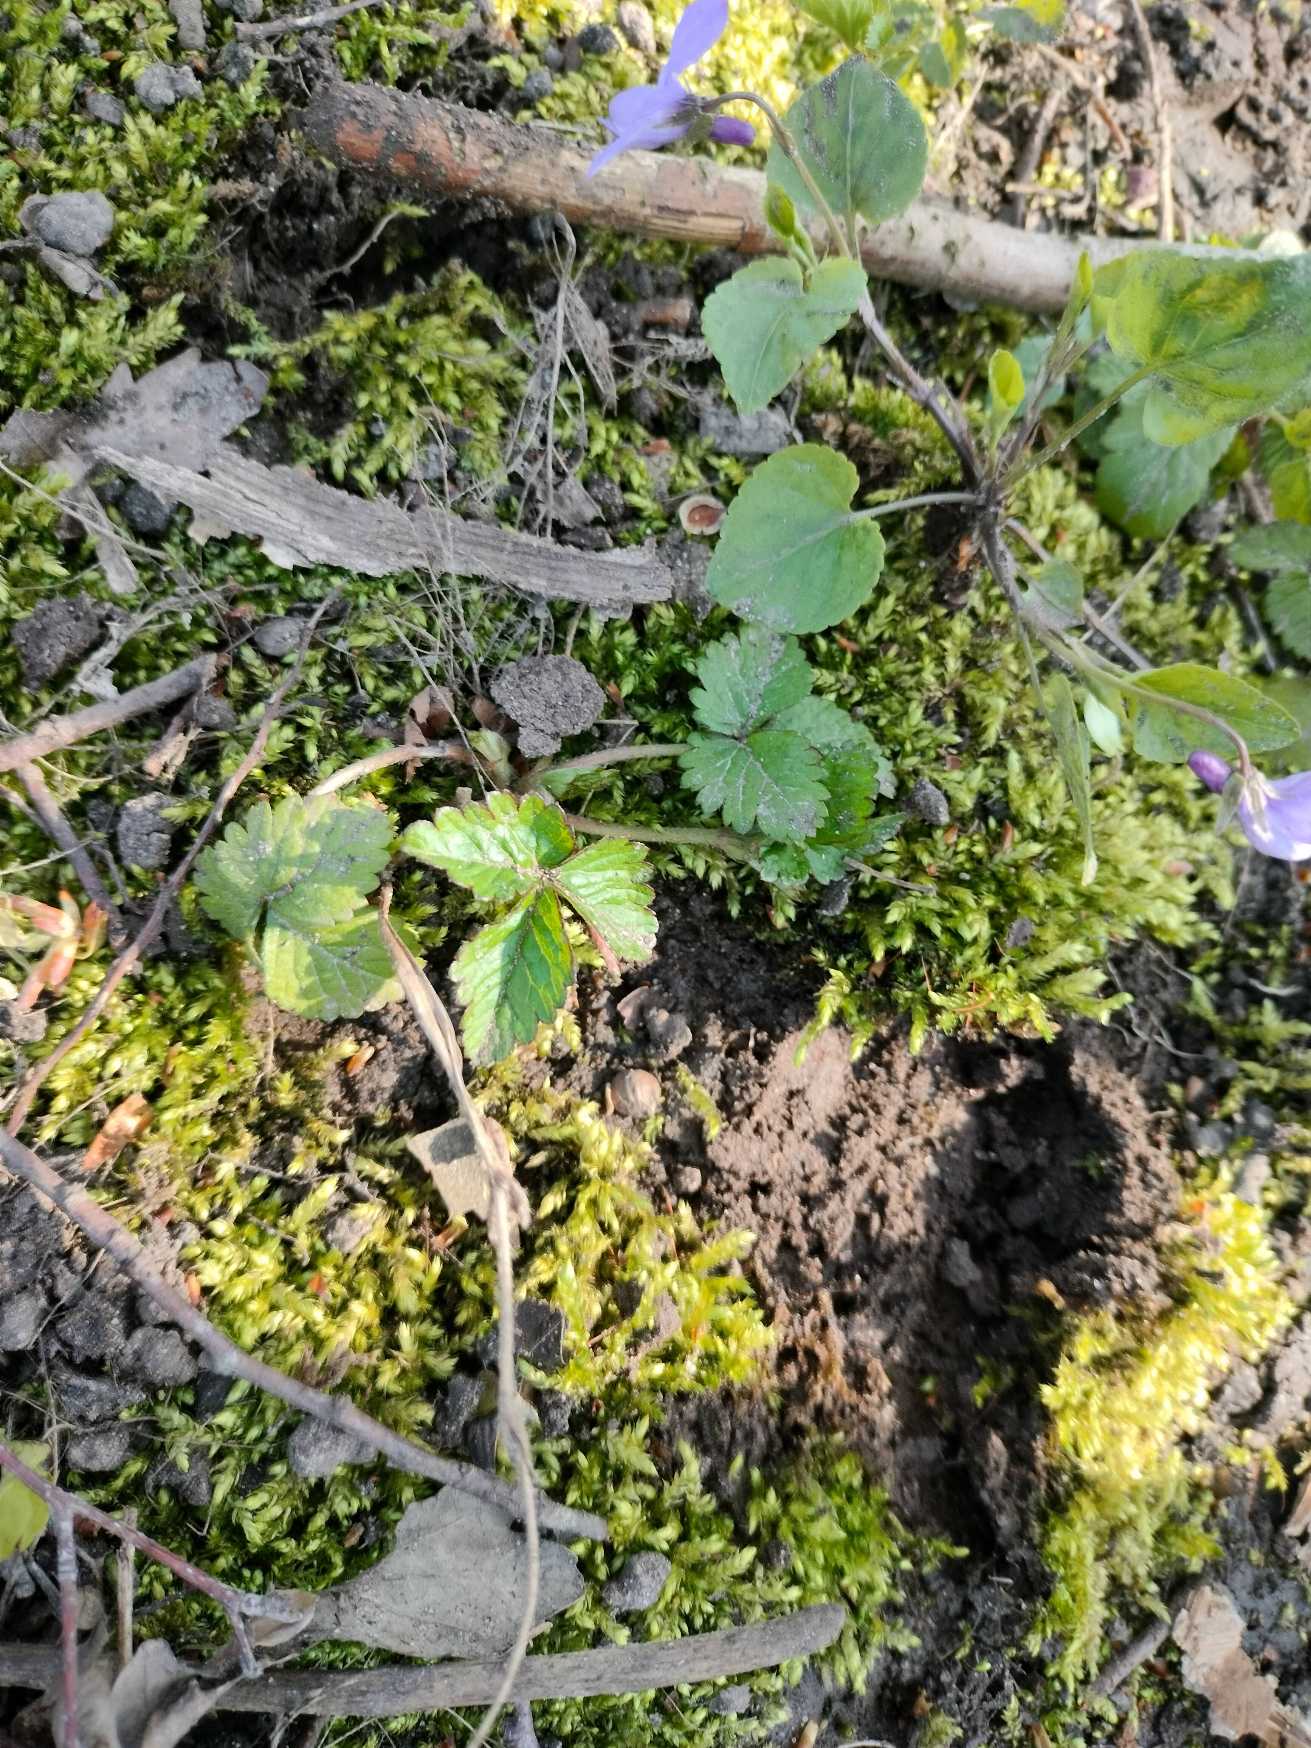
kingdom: Plantae
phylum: Bryophyta
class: Bryopsida
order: Hypnales
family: Brachytheciaceae
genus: Brachythecium
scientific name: Brachythecium rutabulum
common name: Almindelig kortkapsel
